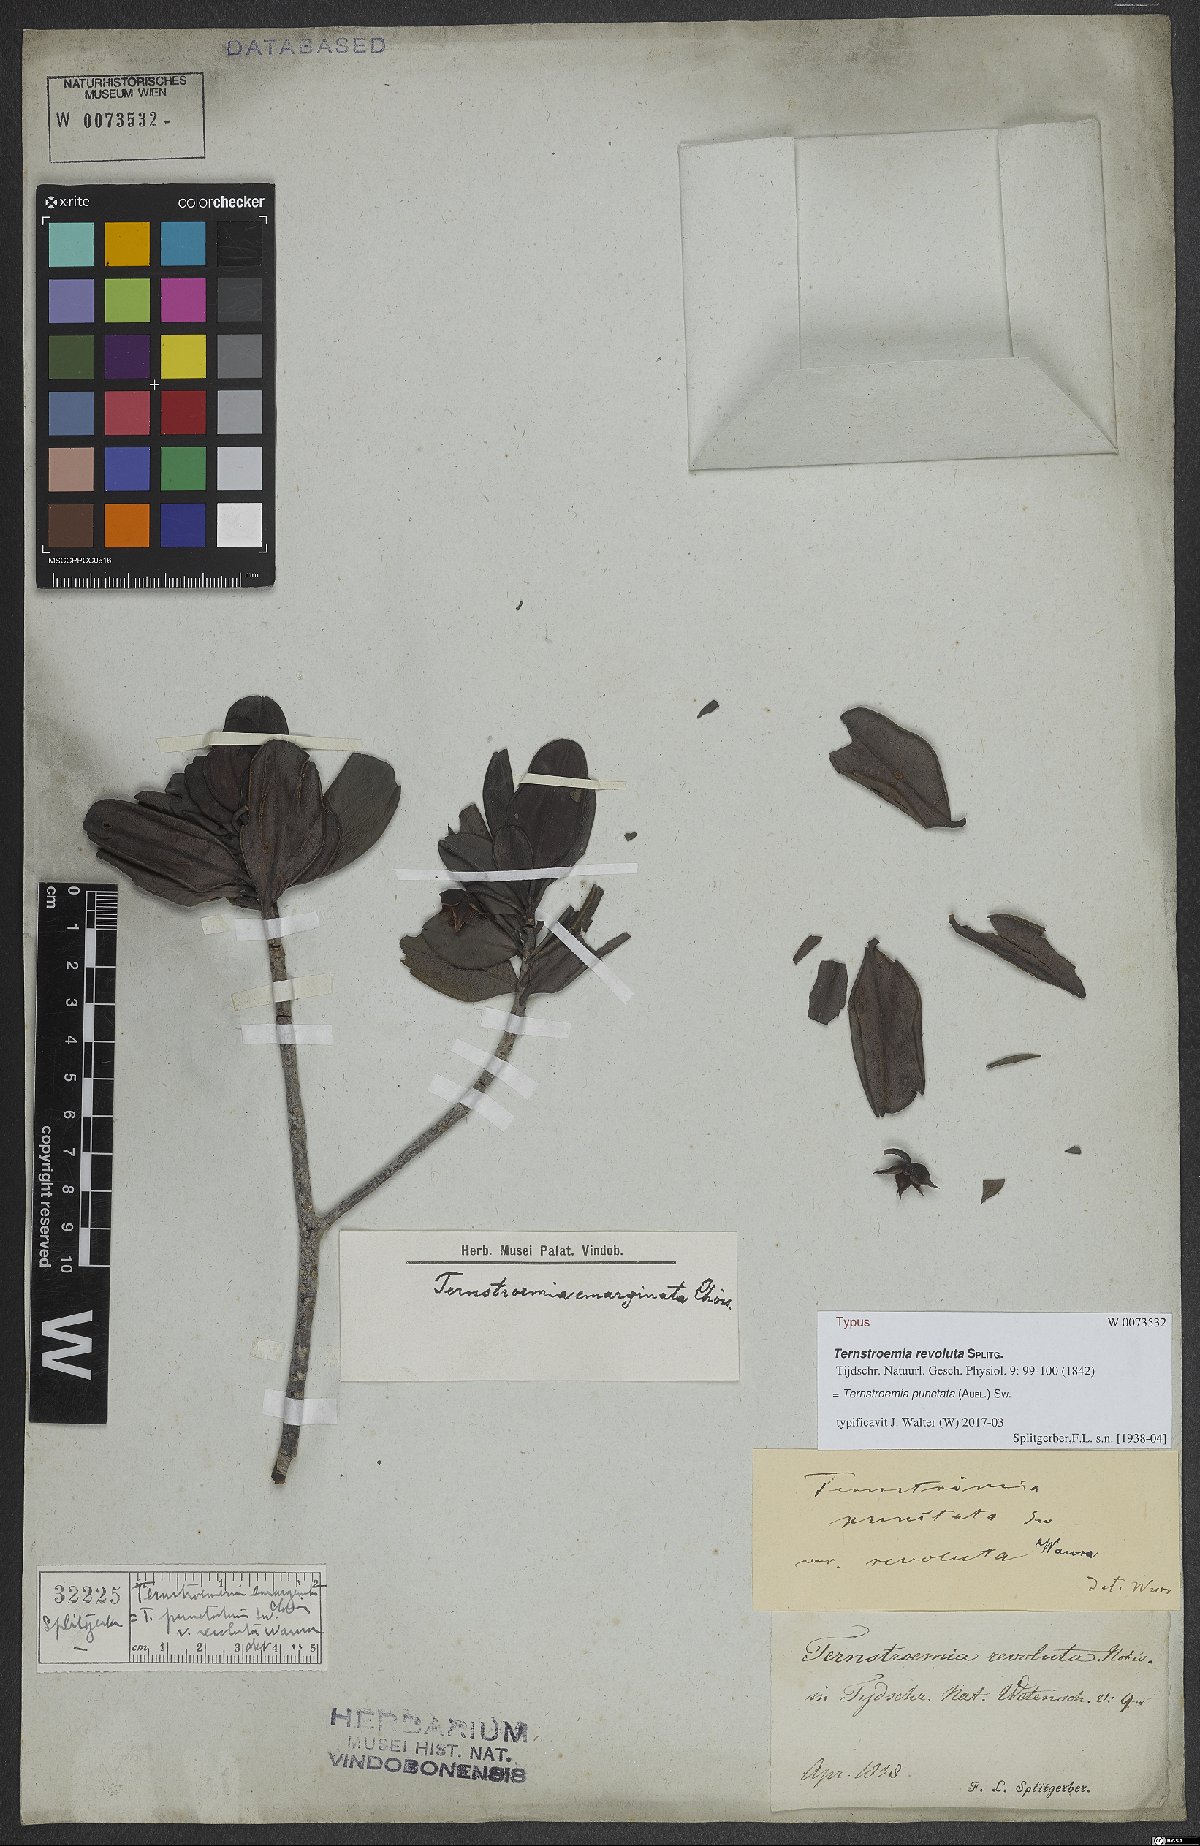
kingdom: Plantae
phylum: Tracheophyta
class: Magnoliopsida
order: Ericales
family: Pentaphylacaceae
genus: Ternstroemia
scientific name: Ternstroemia punctata
